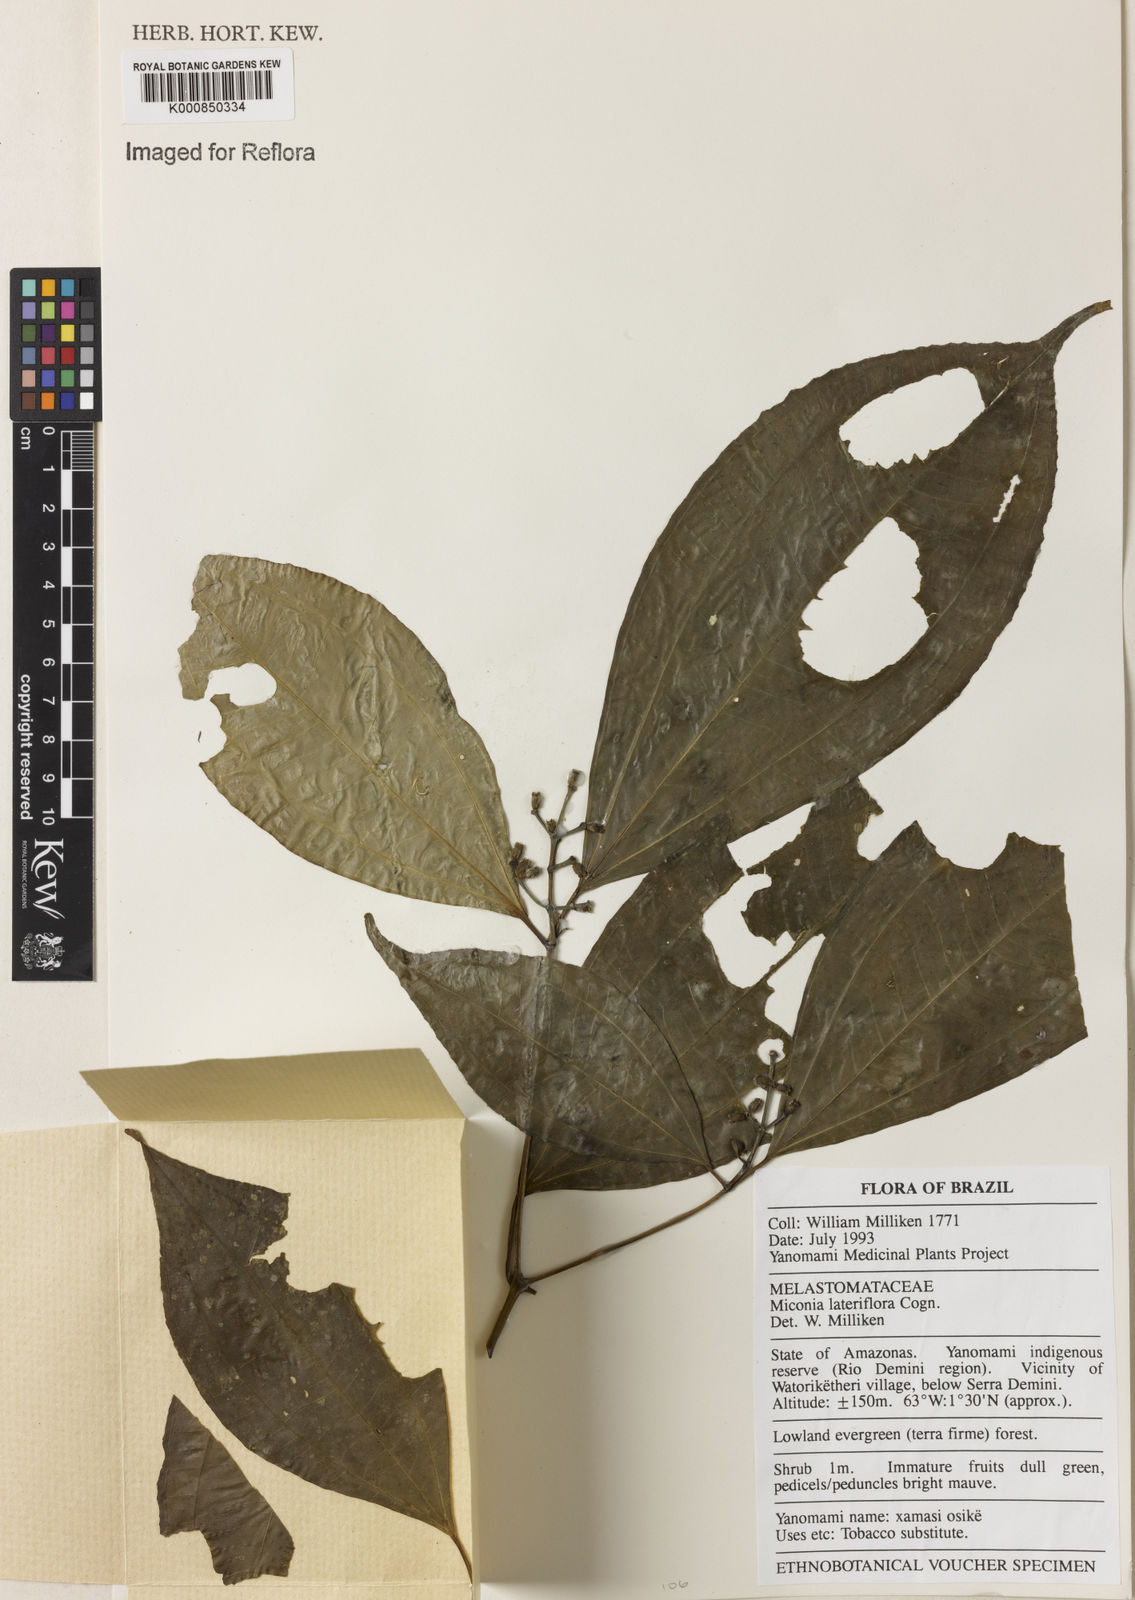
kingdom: Plantae
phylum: Tracheophyta
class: Magnoliopsida
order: Myrtales
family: Melastomataceae
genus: Miconia
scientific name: Miconia lateriflora
